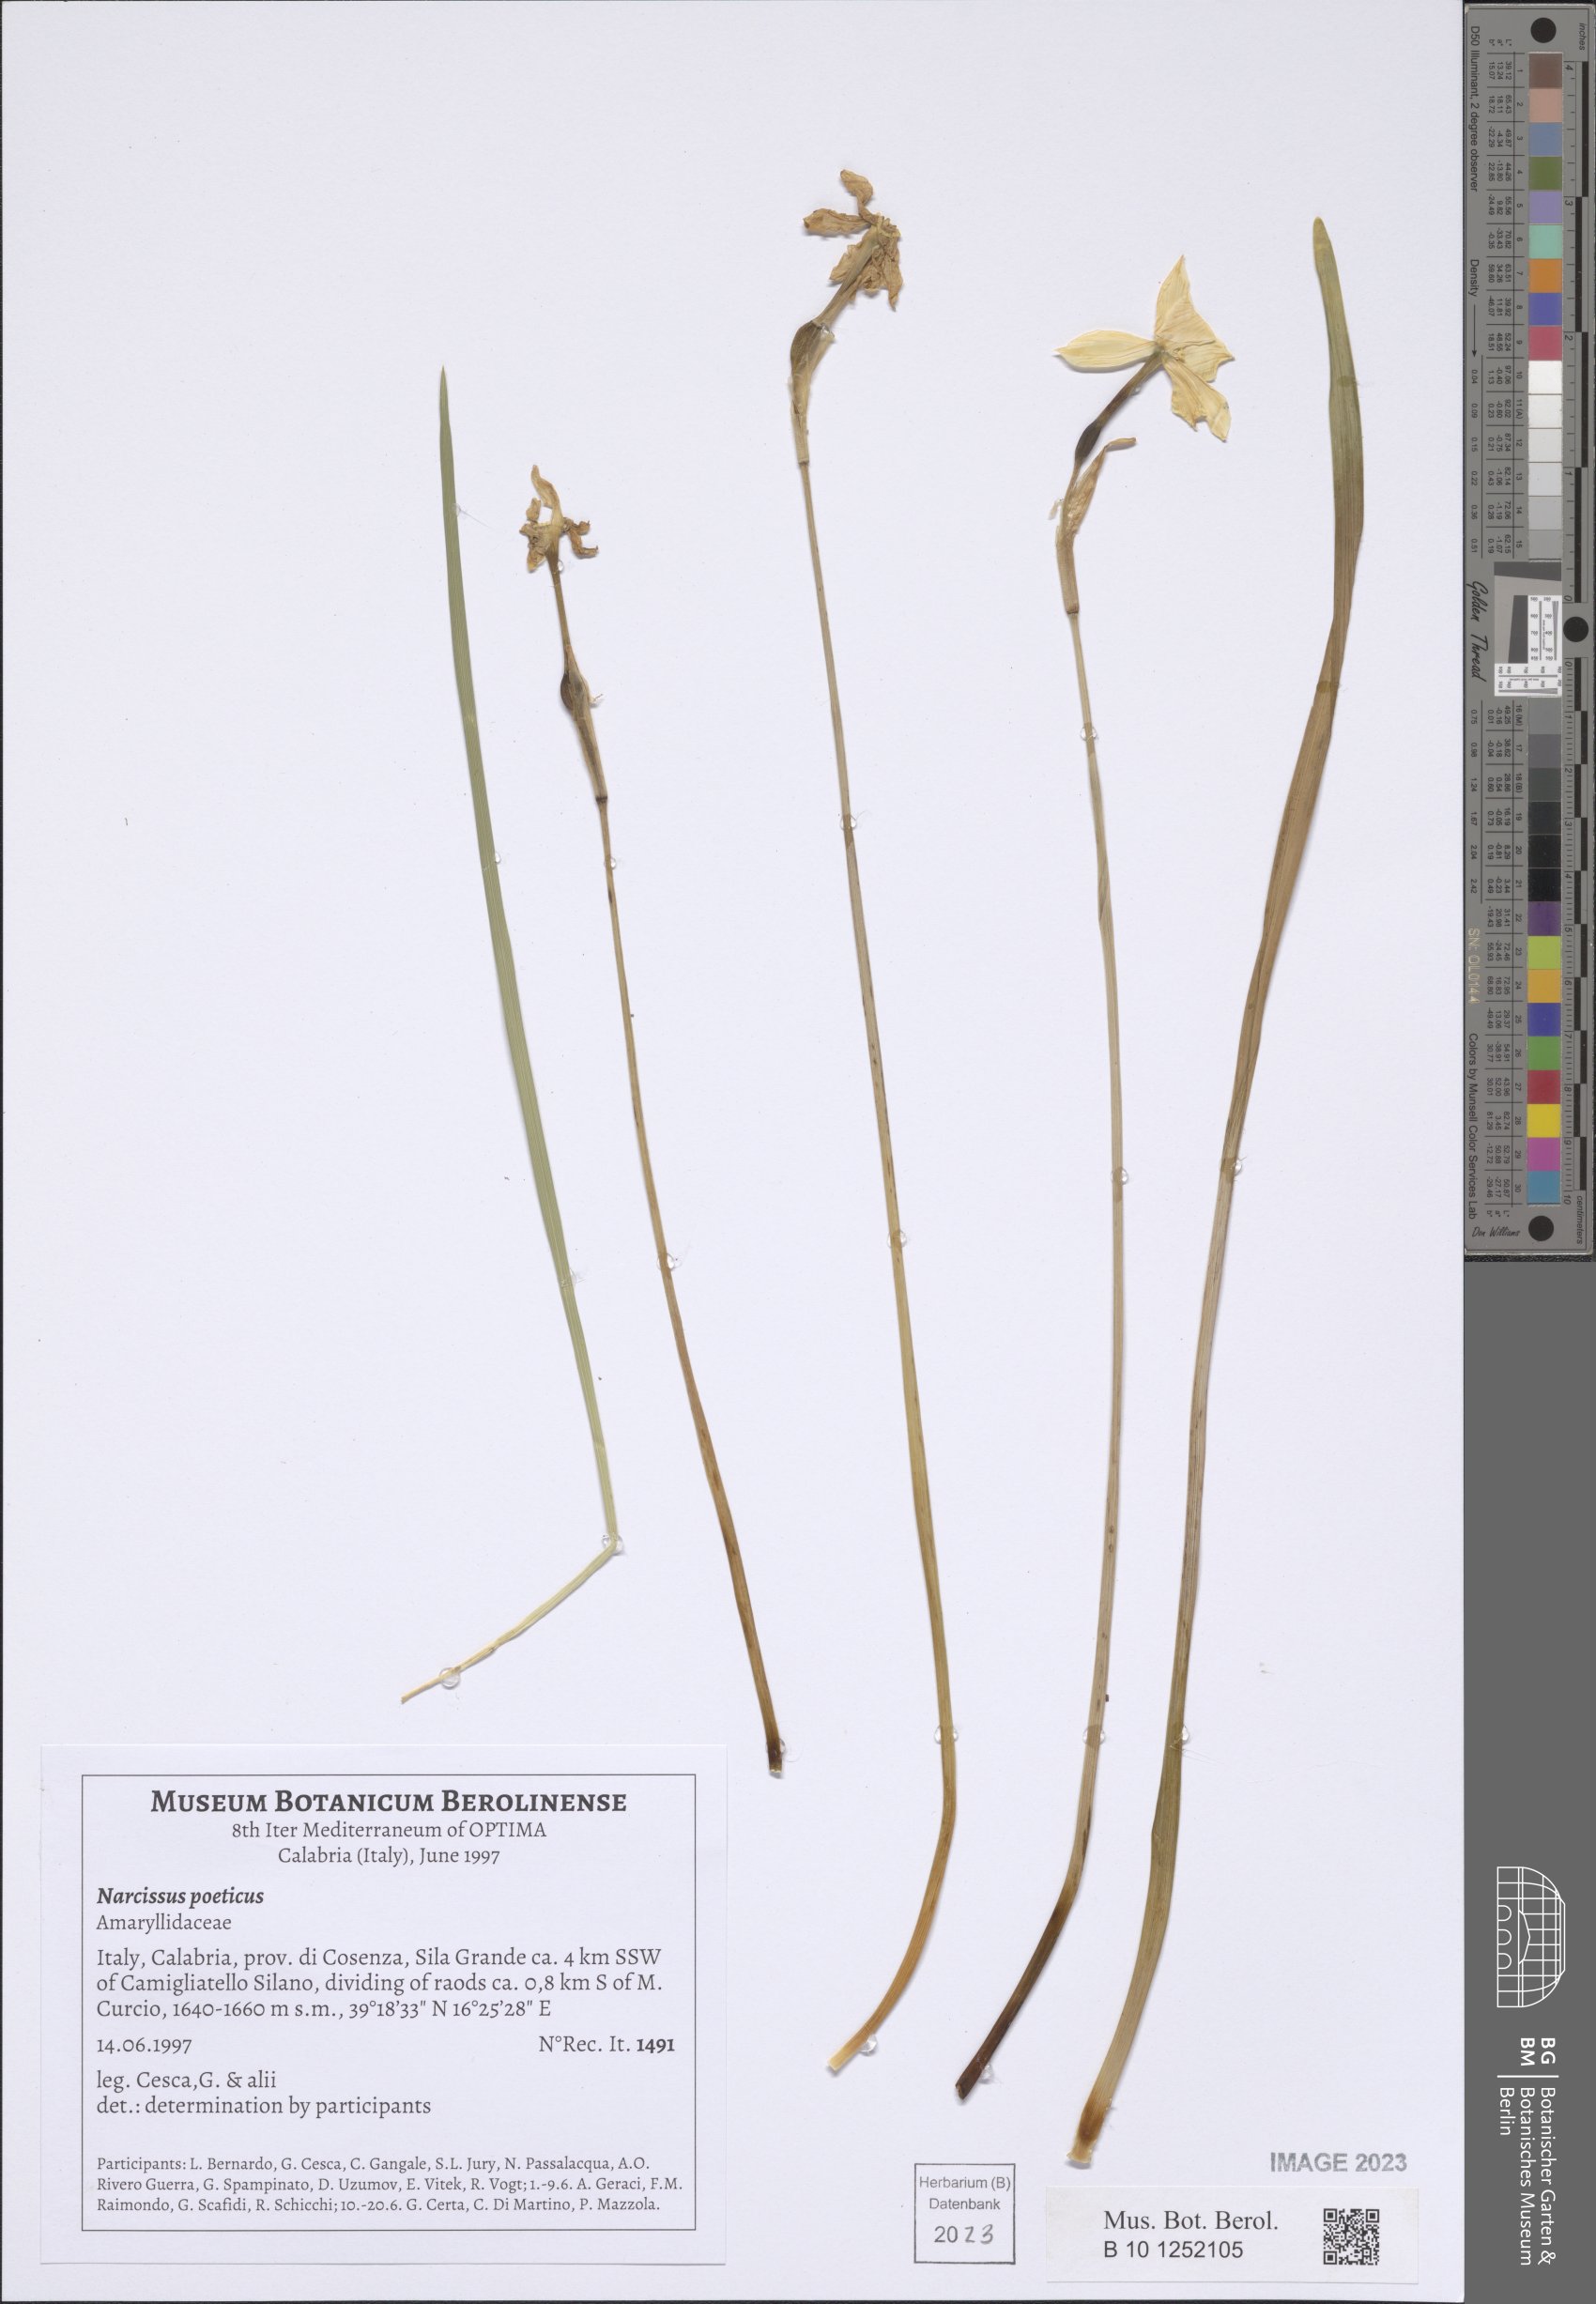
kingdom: Plantae
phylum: Tracheophyta
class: Liliopsida
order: Asparagales
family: Amaryllidaceae
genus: Narcissus
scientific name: Narcissus poeticus
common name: Pheasant's-eye daffodil
